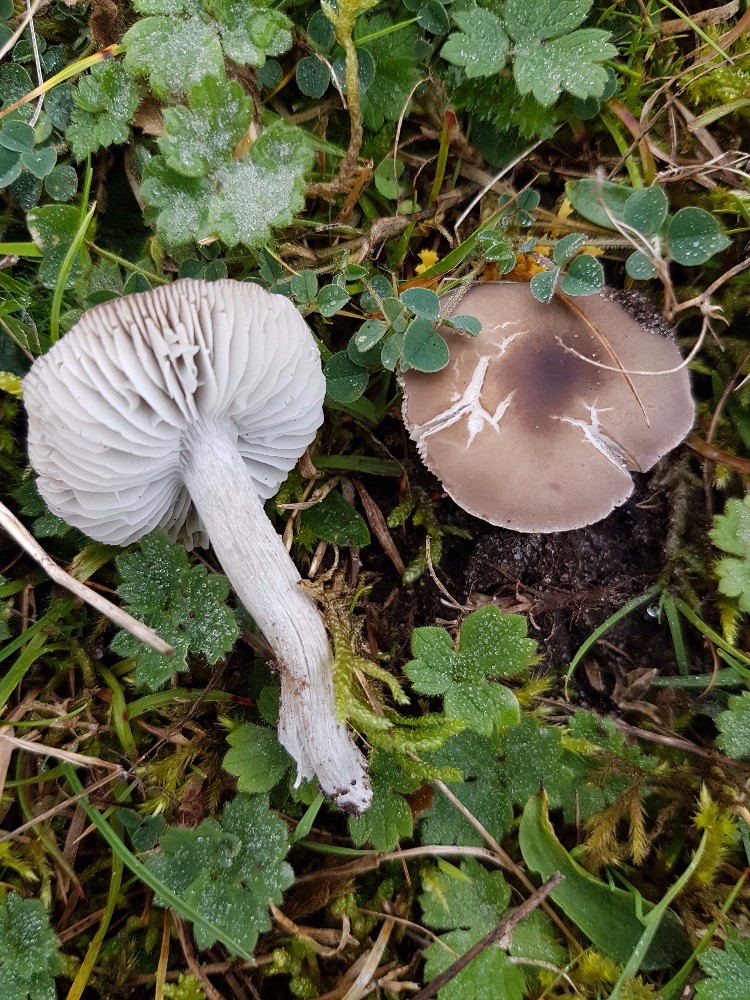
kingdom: Fungi
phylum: Basidiomycota
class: Agaricomycetes
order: Agaricales
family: Tricholomataceae
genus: Dermoloma
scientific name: Dermoloma cuneifolium
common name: eng-nonnehat
